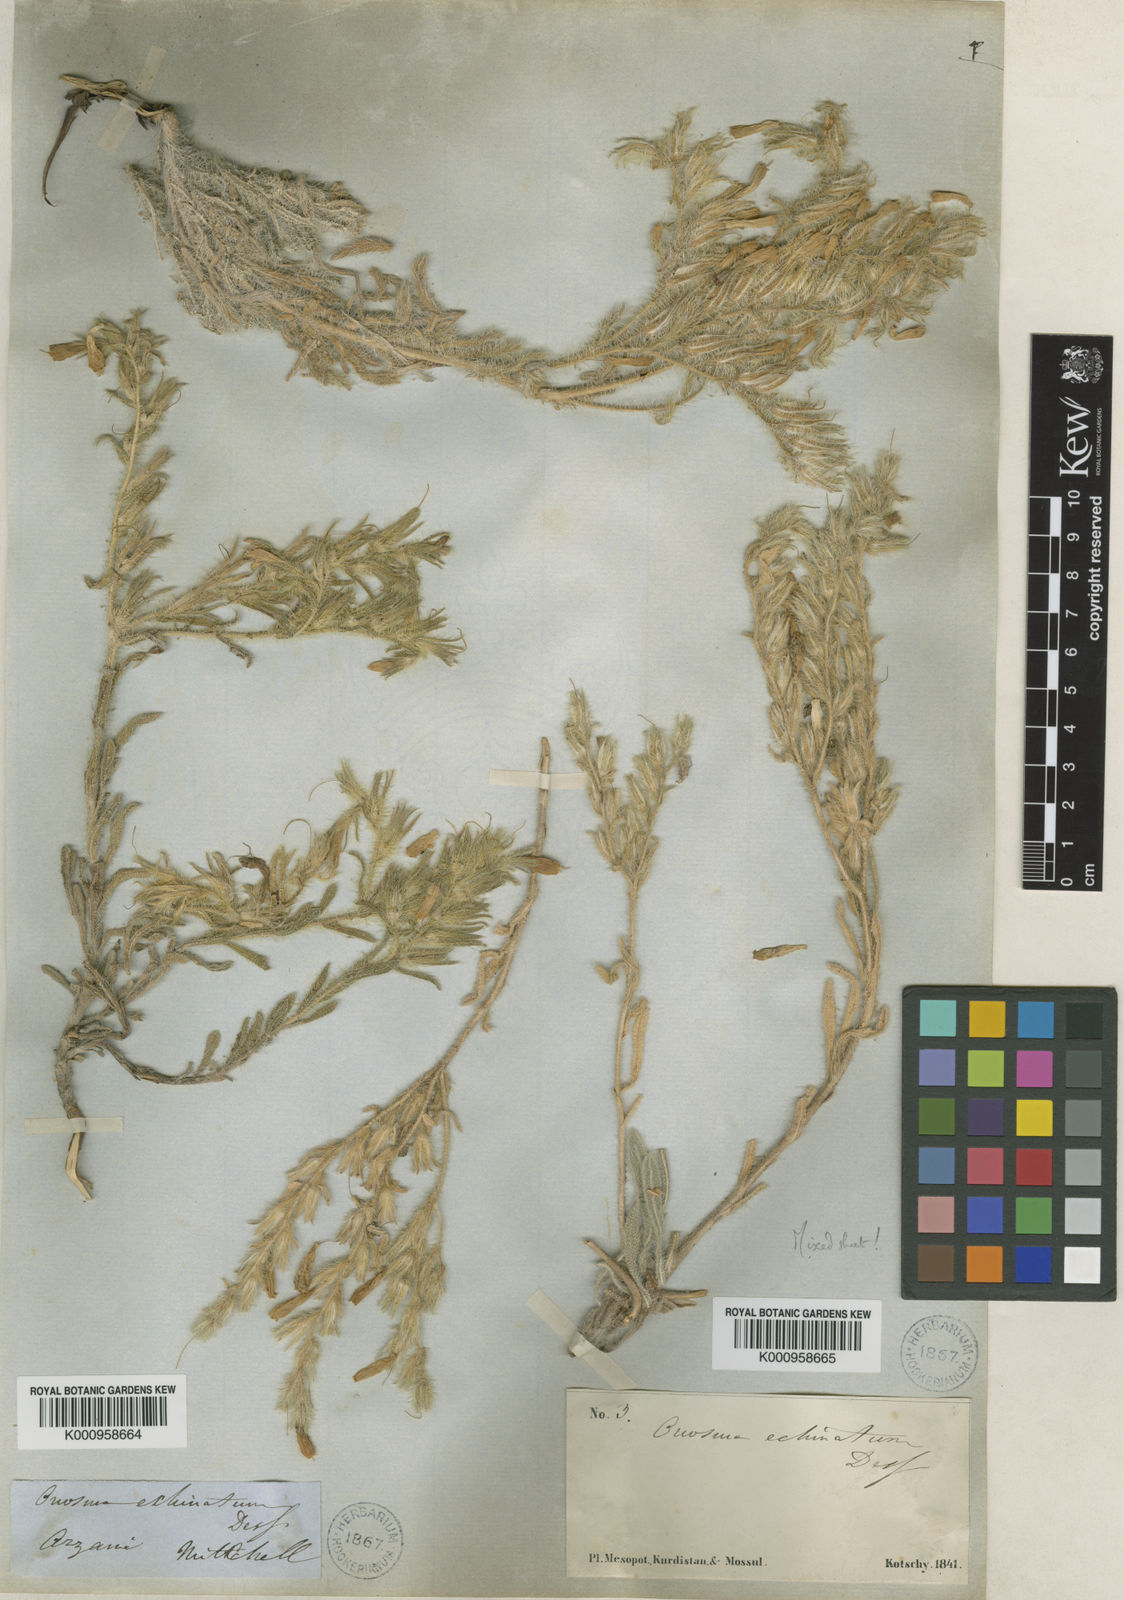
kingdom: Plantae
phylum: Tracheophyta
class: Magnoliopsida
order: Boraginales
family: Boraginaceae
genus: Onosma
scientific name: Onosma bulbotricha
